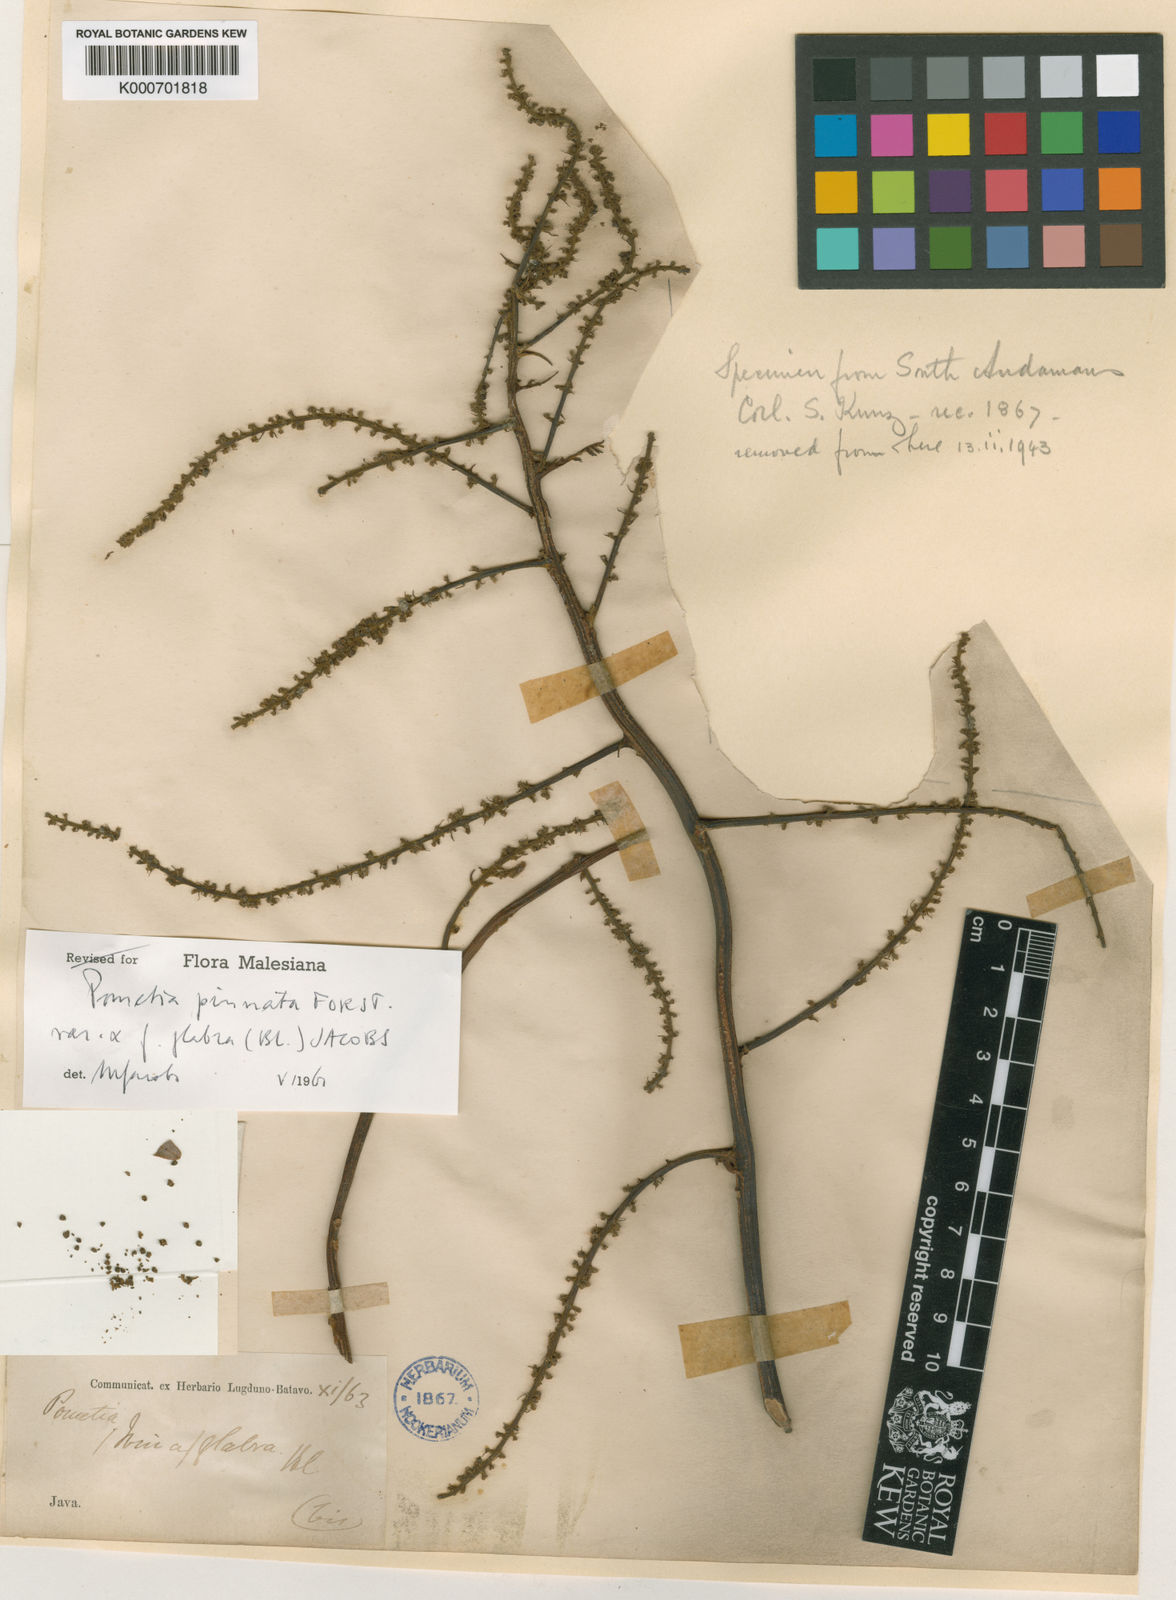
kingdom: Plantae
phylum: Tracheophyta
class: Magnoliopsida
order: Sapindales
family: Sapindaceae
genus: Pometia
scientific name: Pometia pinnata
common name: Oceanic lychee
